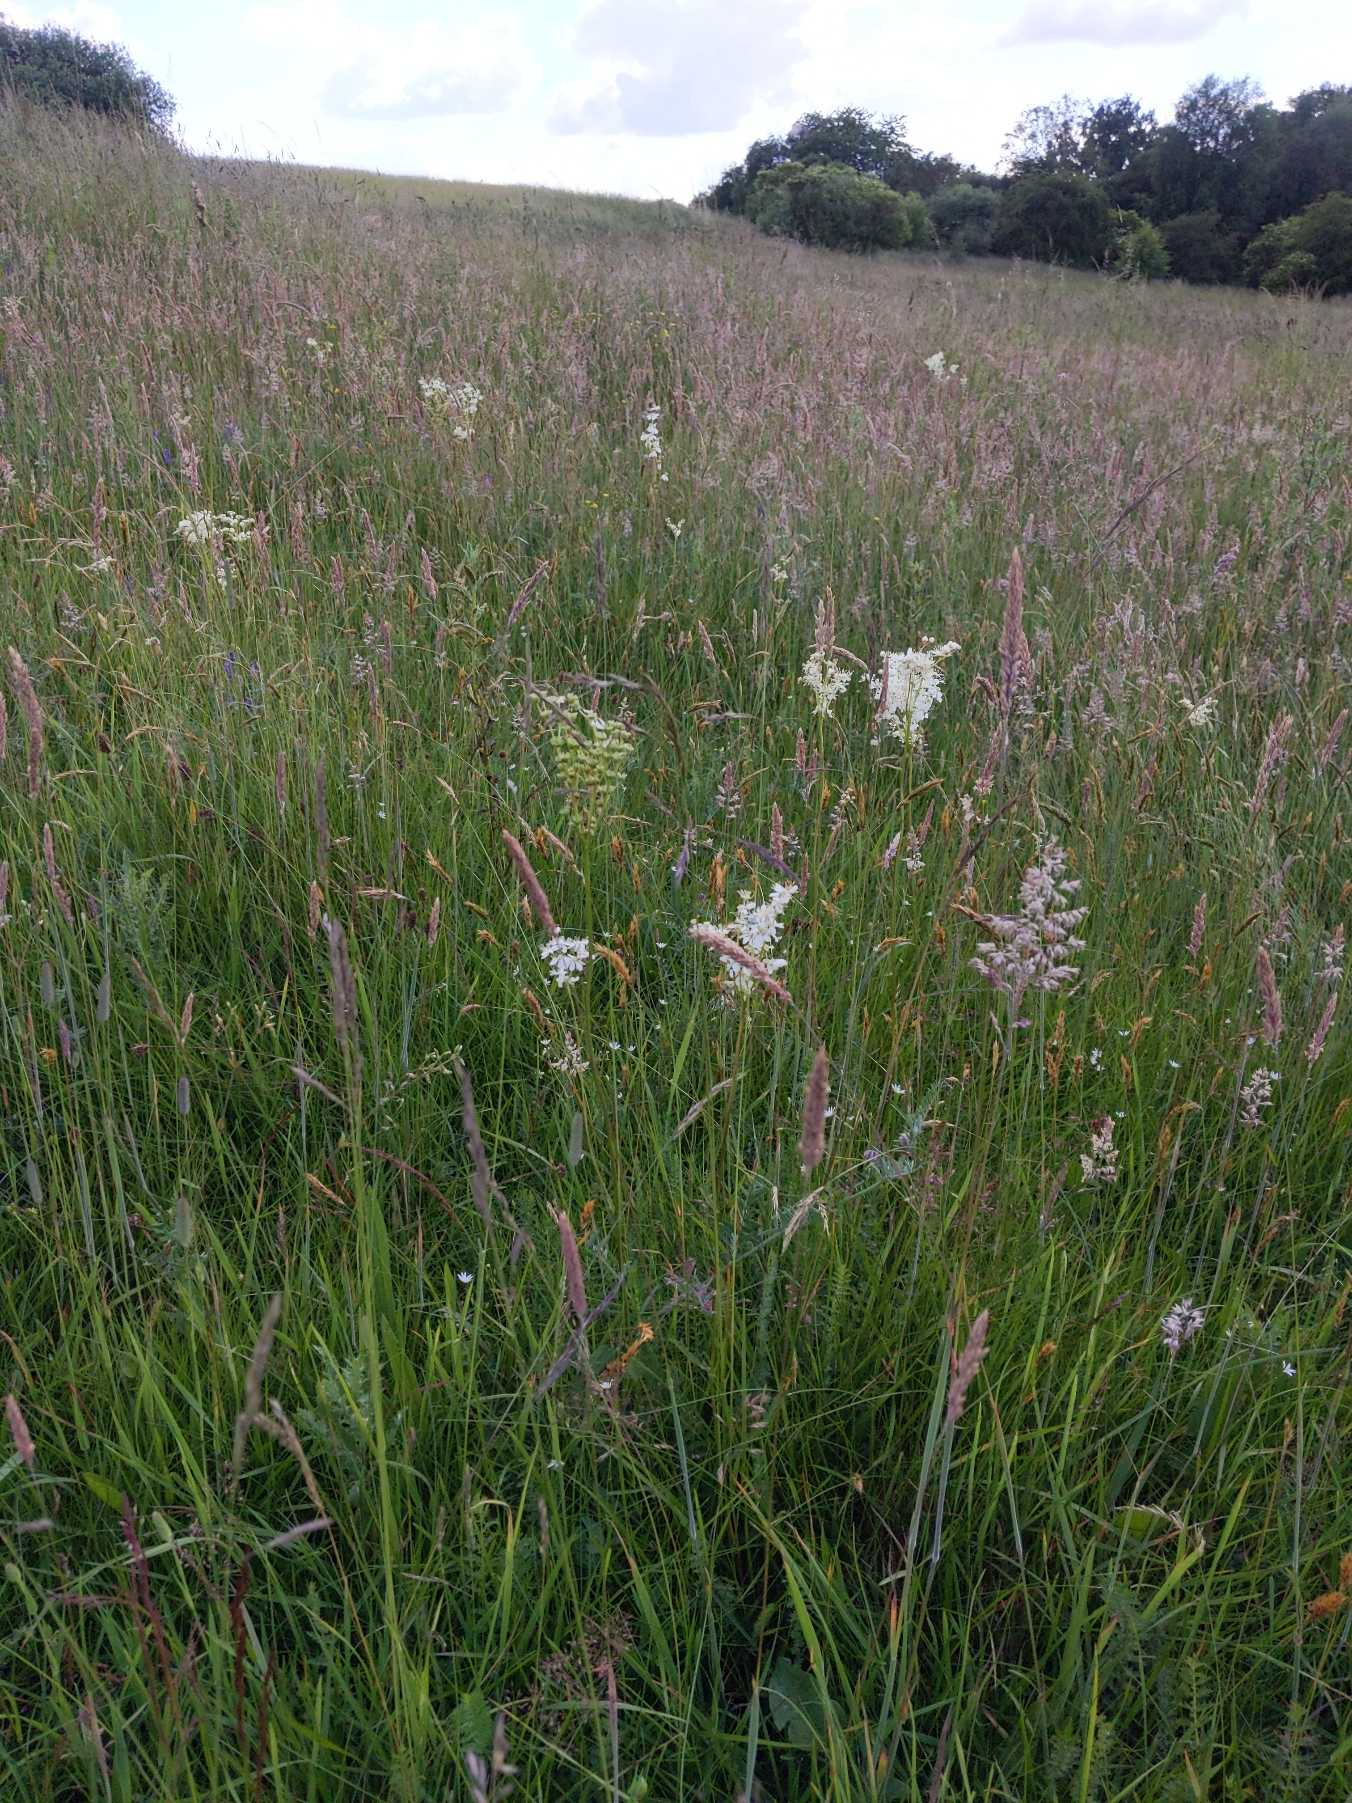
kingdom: Plantae
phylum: Tracheophyta
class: Magnoliopsida
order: Rosales
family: Rosaceae
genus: Filipendula
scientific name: Filipendula vulgaris
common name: Knoldet mjødurt
